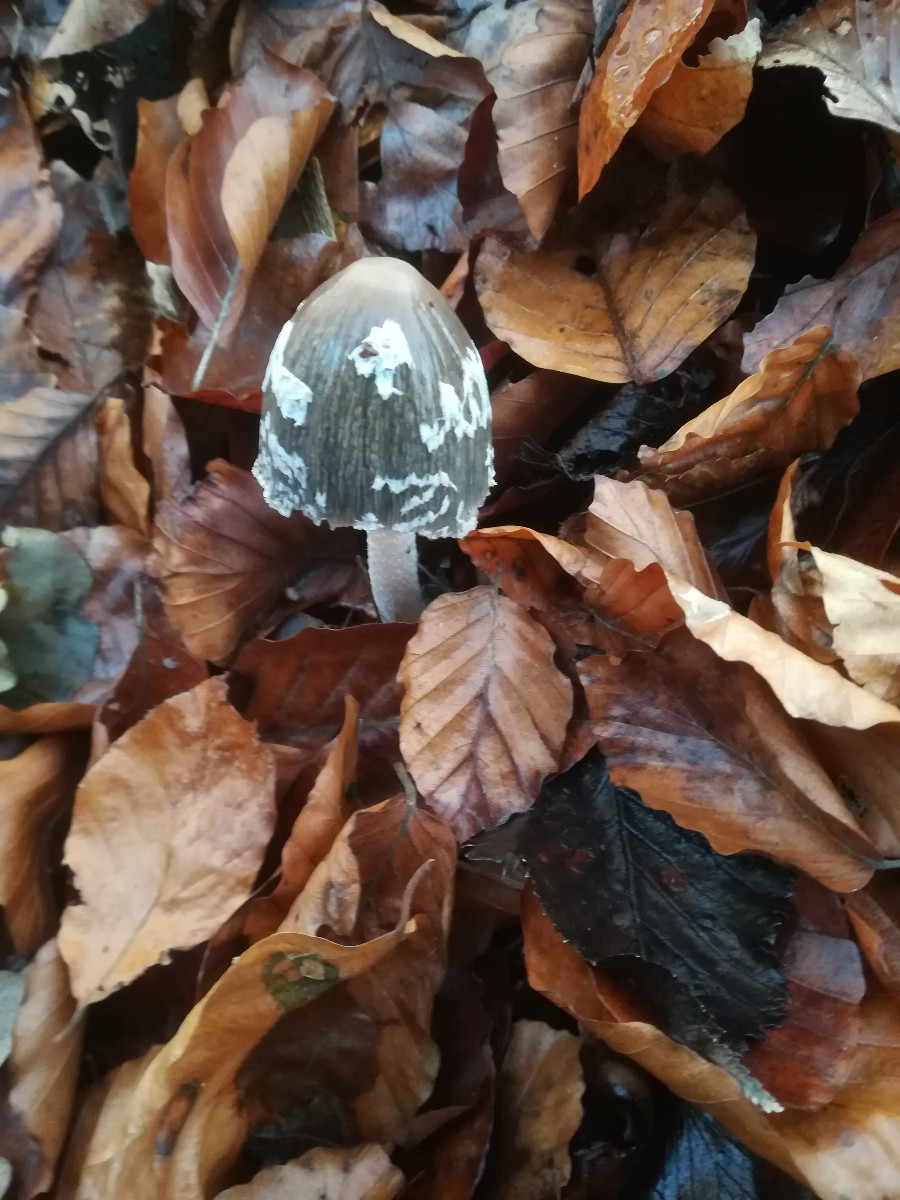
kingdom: Fungi
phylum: Basidiomycota
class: Agaricomycetes
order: Agaricales
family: Psathyrellaceae
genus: Coprinopsis
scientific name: Coprinopsis picacea
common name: skade-blækhat
